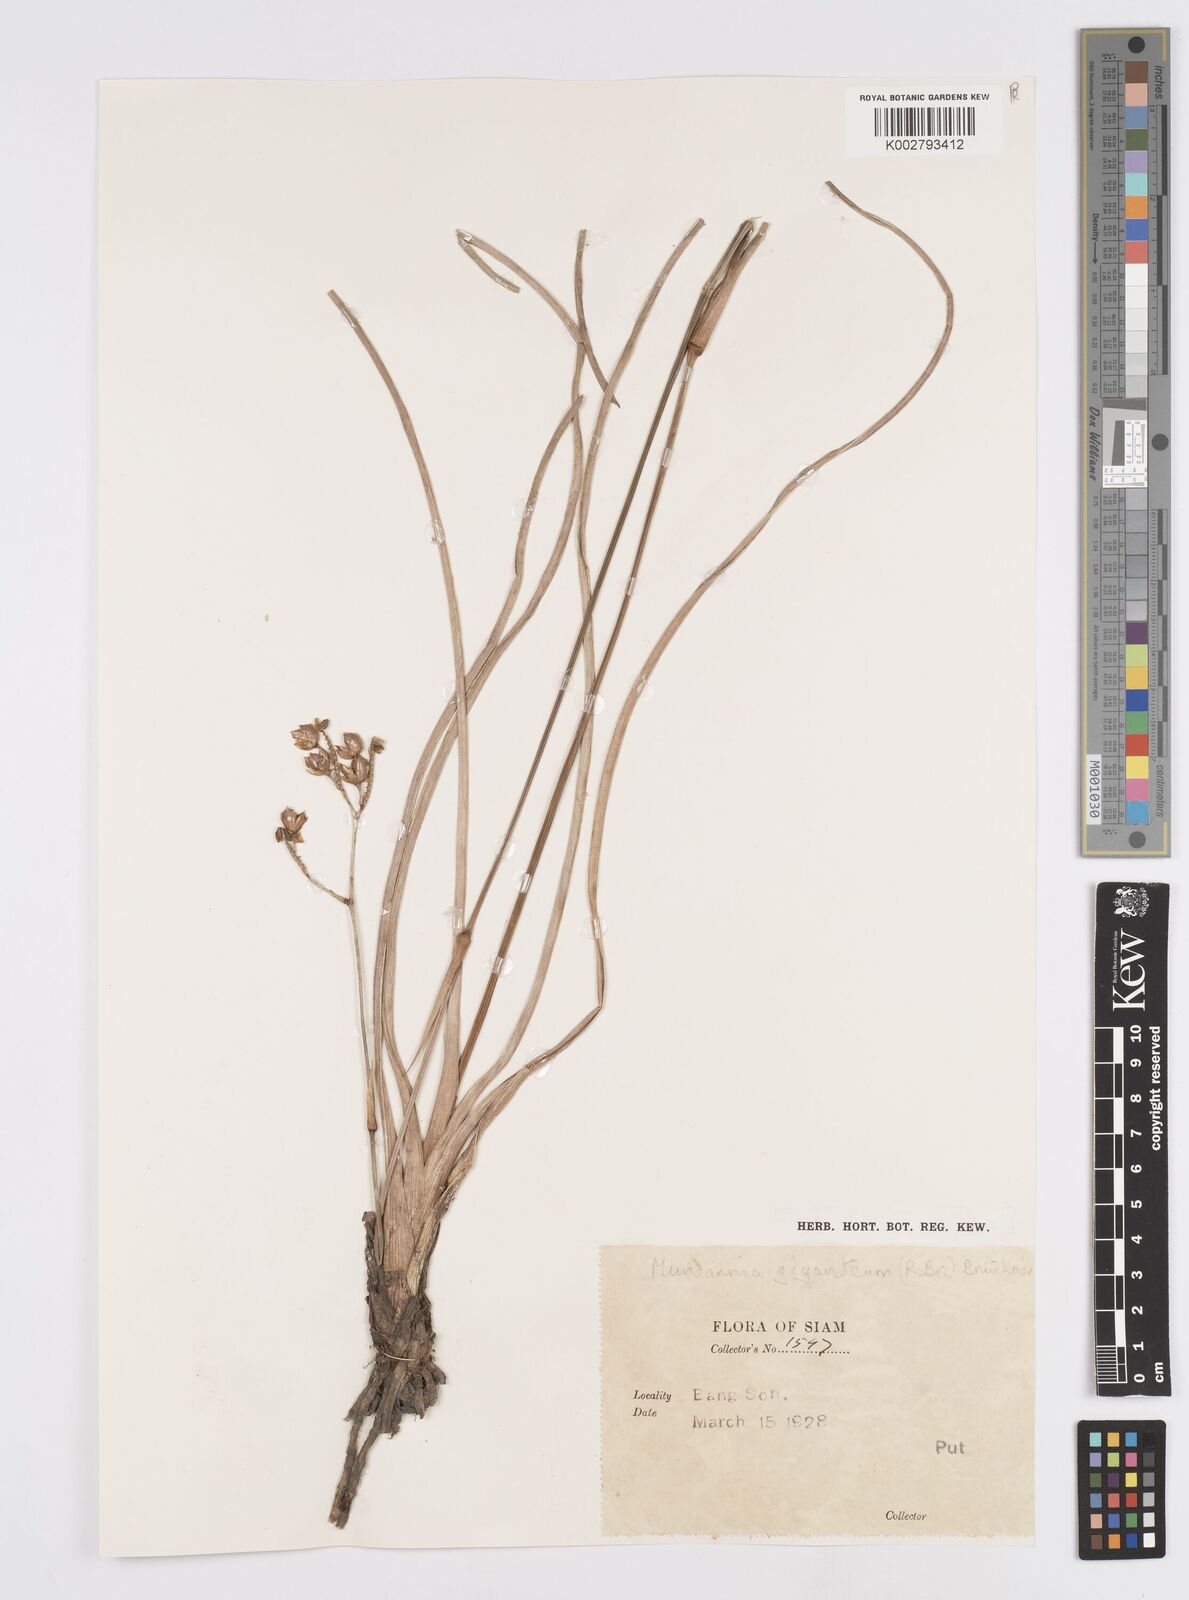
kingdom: Plantae
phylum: Tracheophyta
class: Liliopsida
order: Commelinales
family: Commelinaceae
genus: Murdannia
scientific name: Murdannia gigantea
